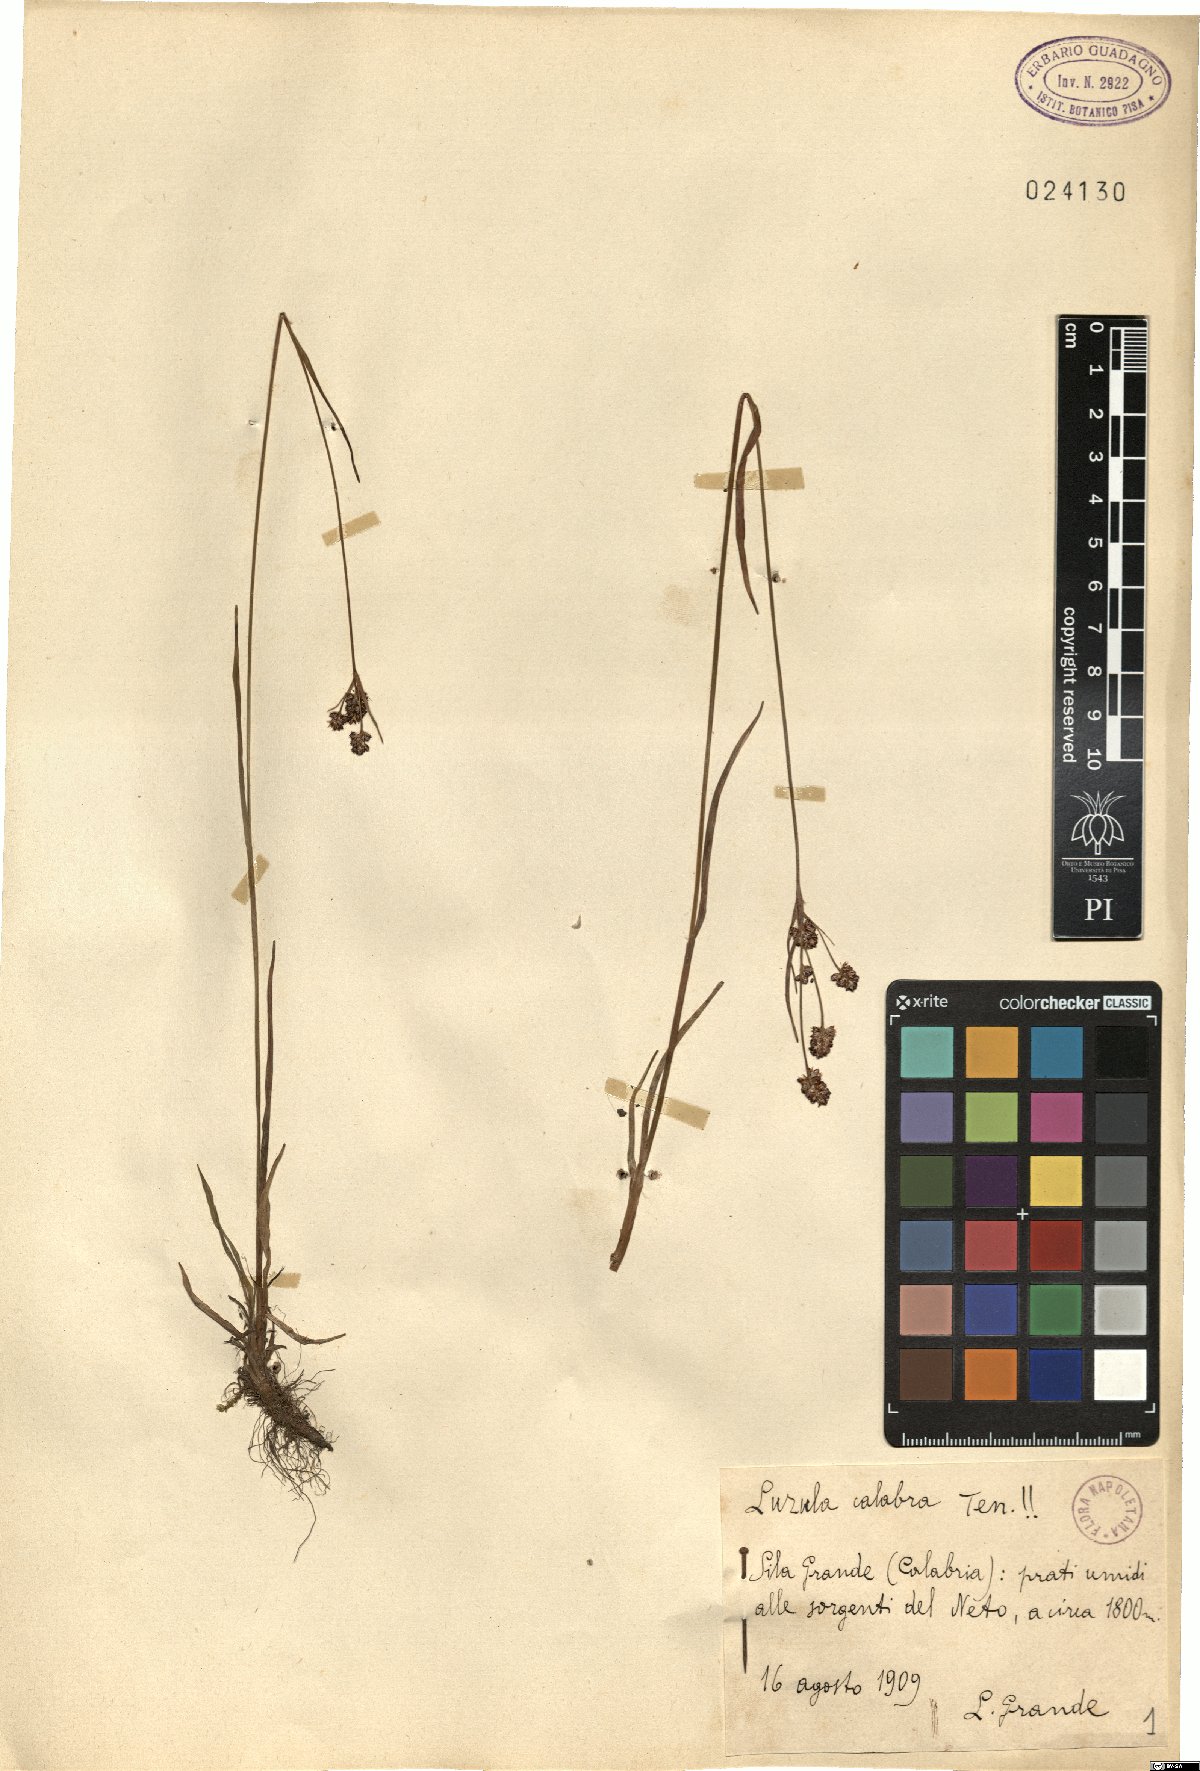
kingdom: Plantae
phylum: Tracheophyta
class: Liliopsida
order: Poales
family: Juncaceae
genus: Luzula
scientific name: Luzula calabra
